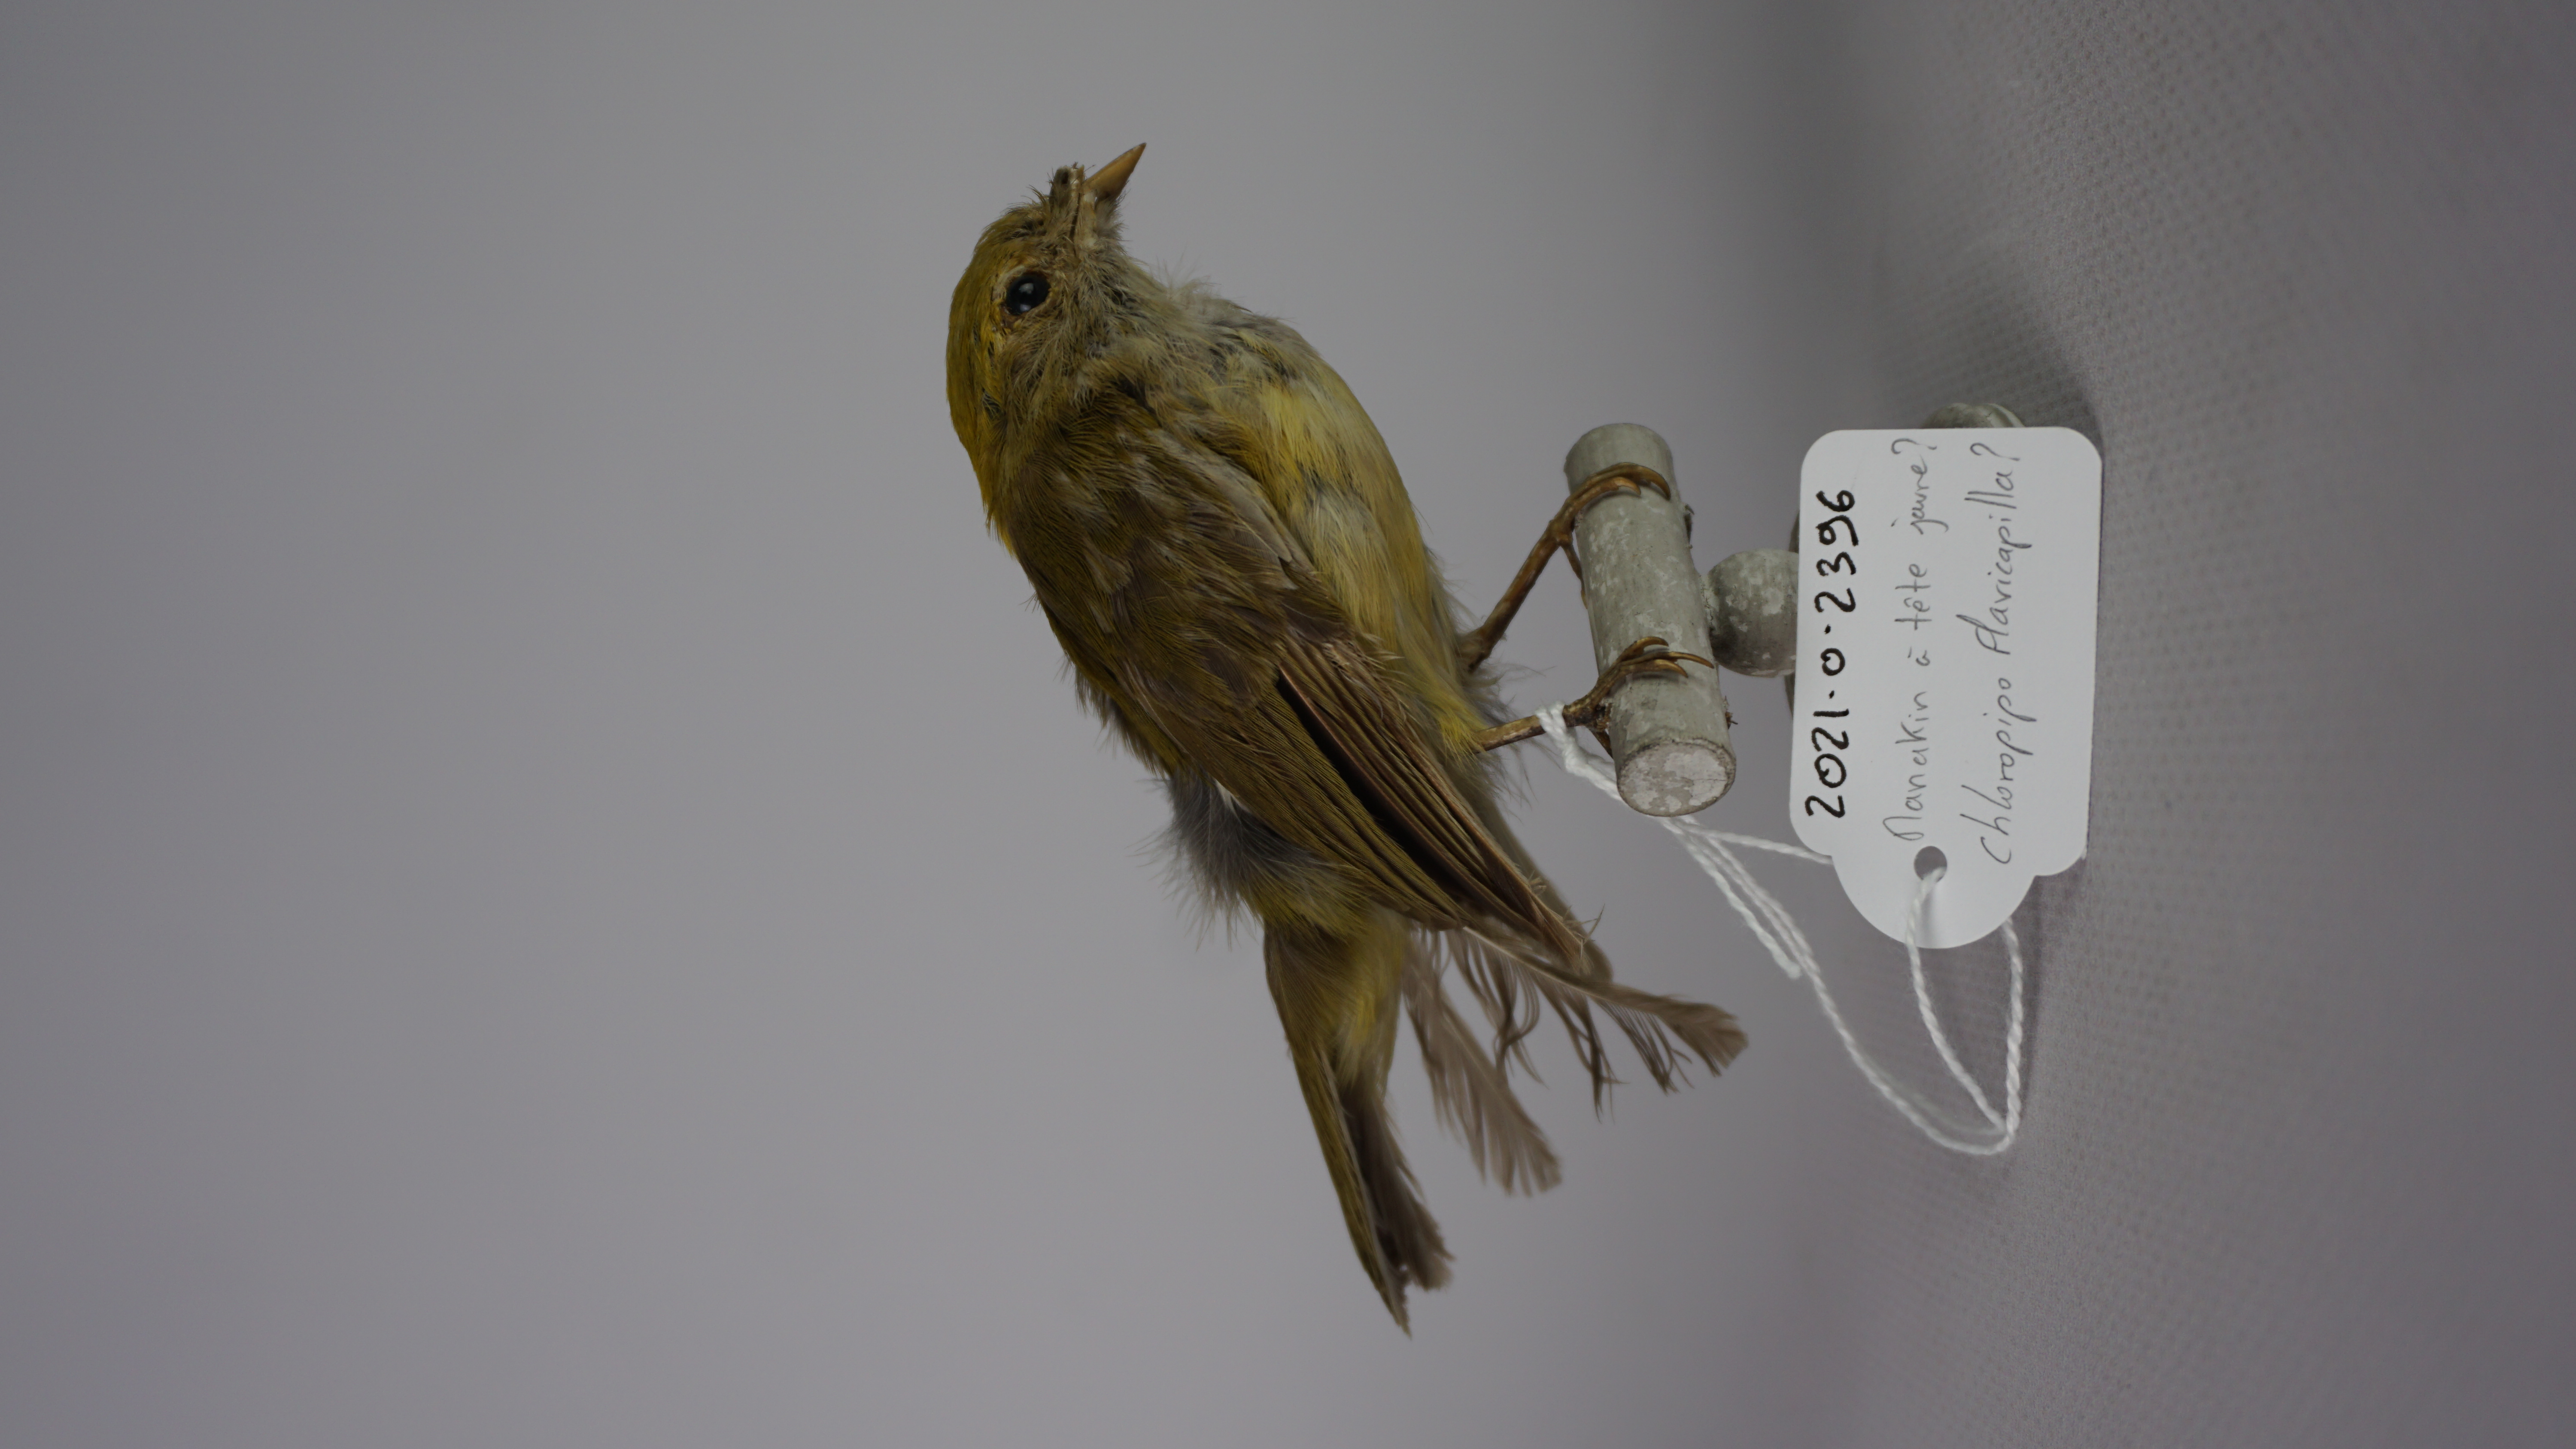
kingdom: Animalia
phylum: Chordata
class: Aves
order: Passeriformes
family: Pipridae
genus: Xenopipo
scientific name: Xenopipo flavicapilla
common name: Yellow-headed manakin
